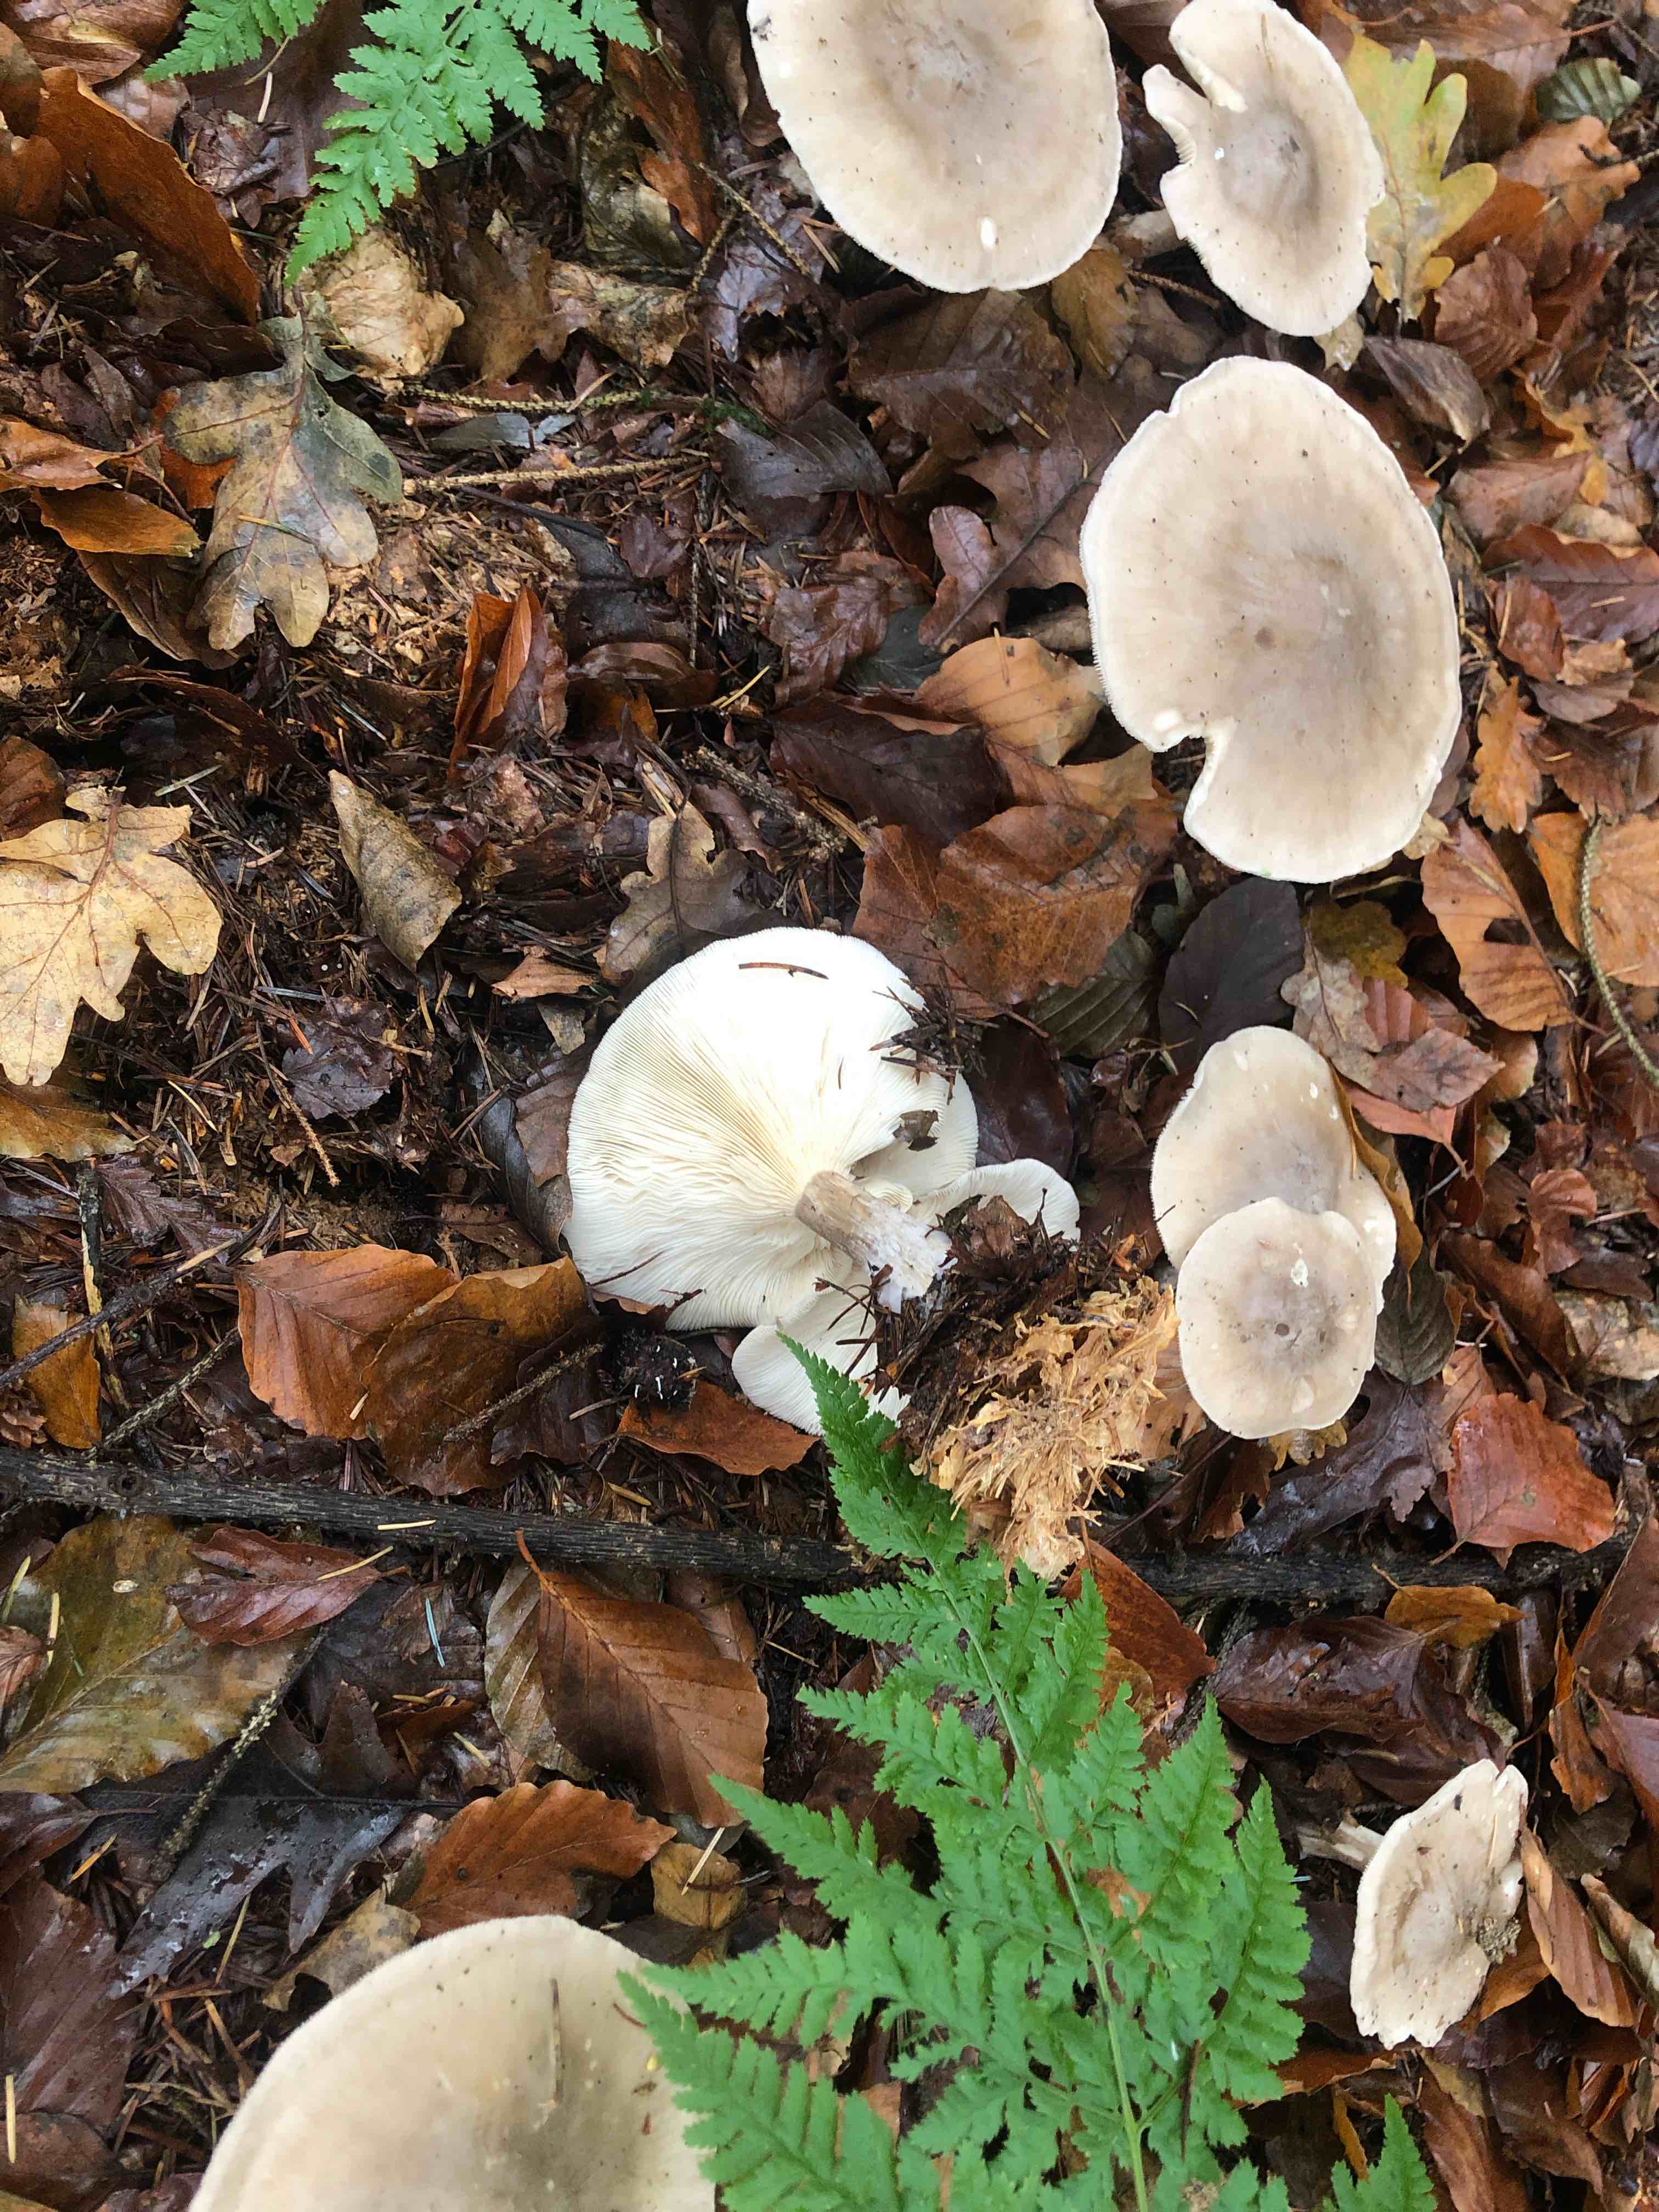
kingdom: Fungi
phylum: Basidiomycota
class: Agaricomycetes
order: Agaricales
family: Tricholomataceae
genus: Clitocybe
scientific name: Clitocybe nebularis
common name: tåge-tragthat
